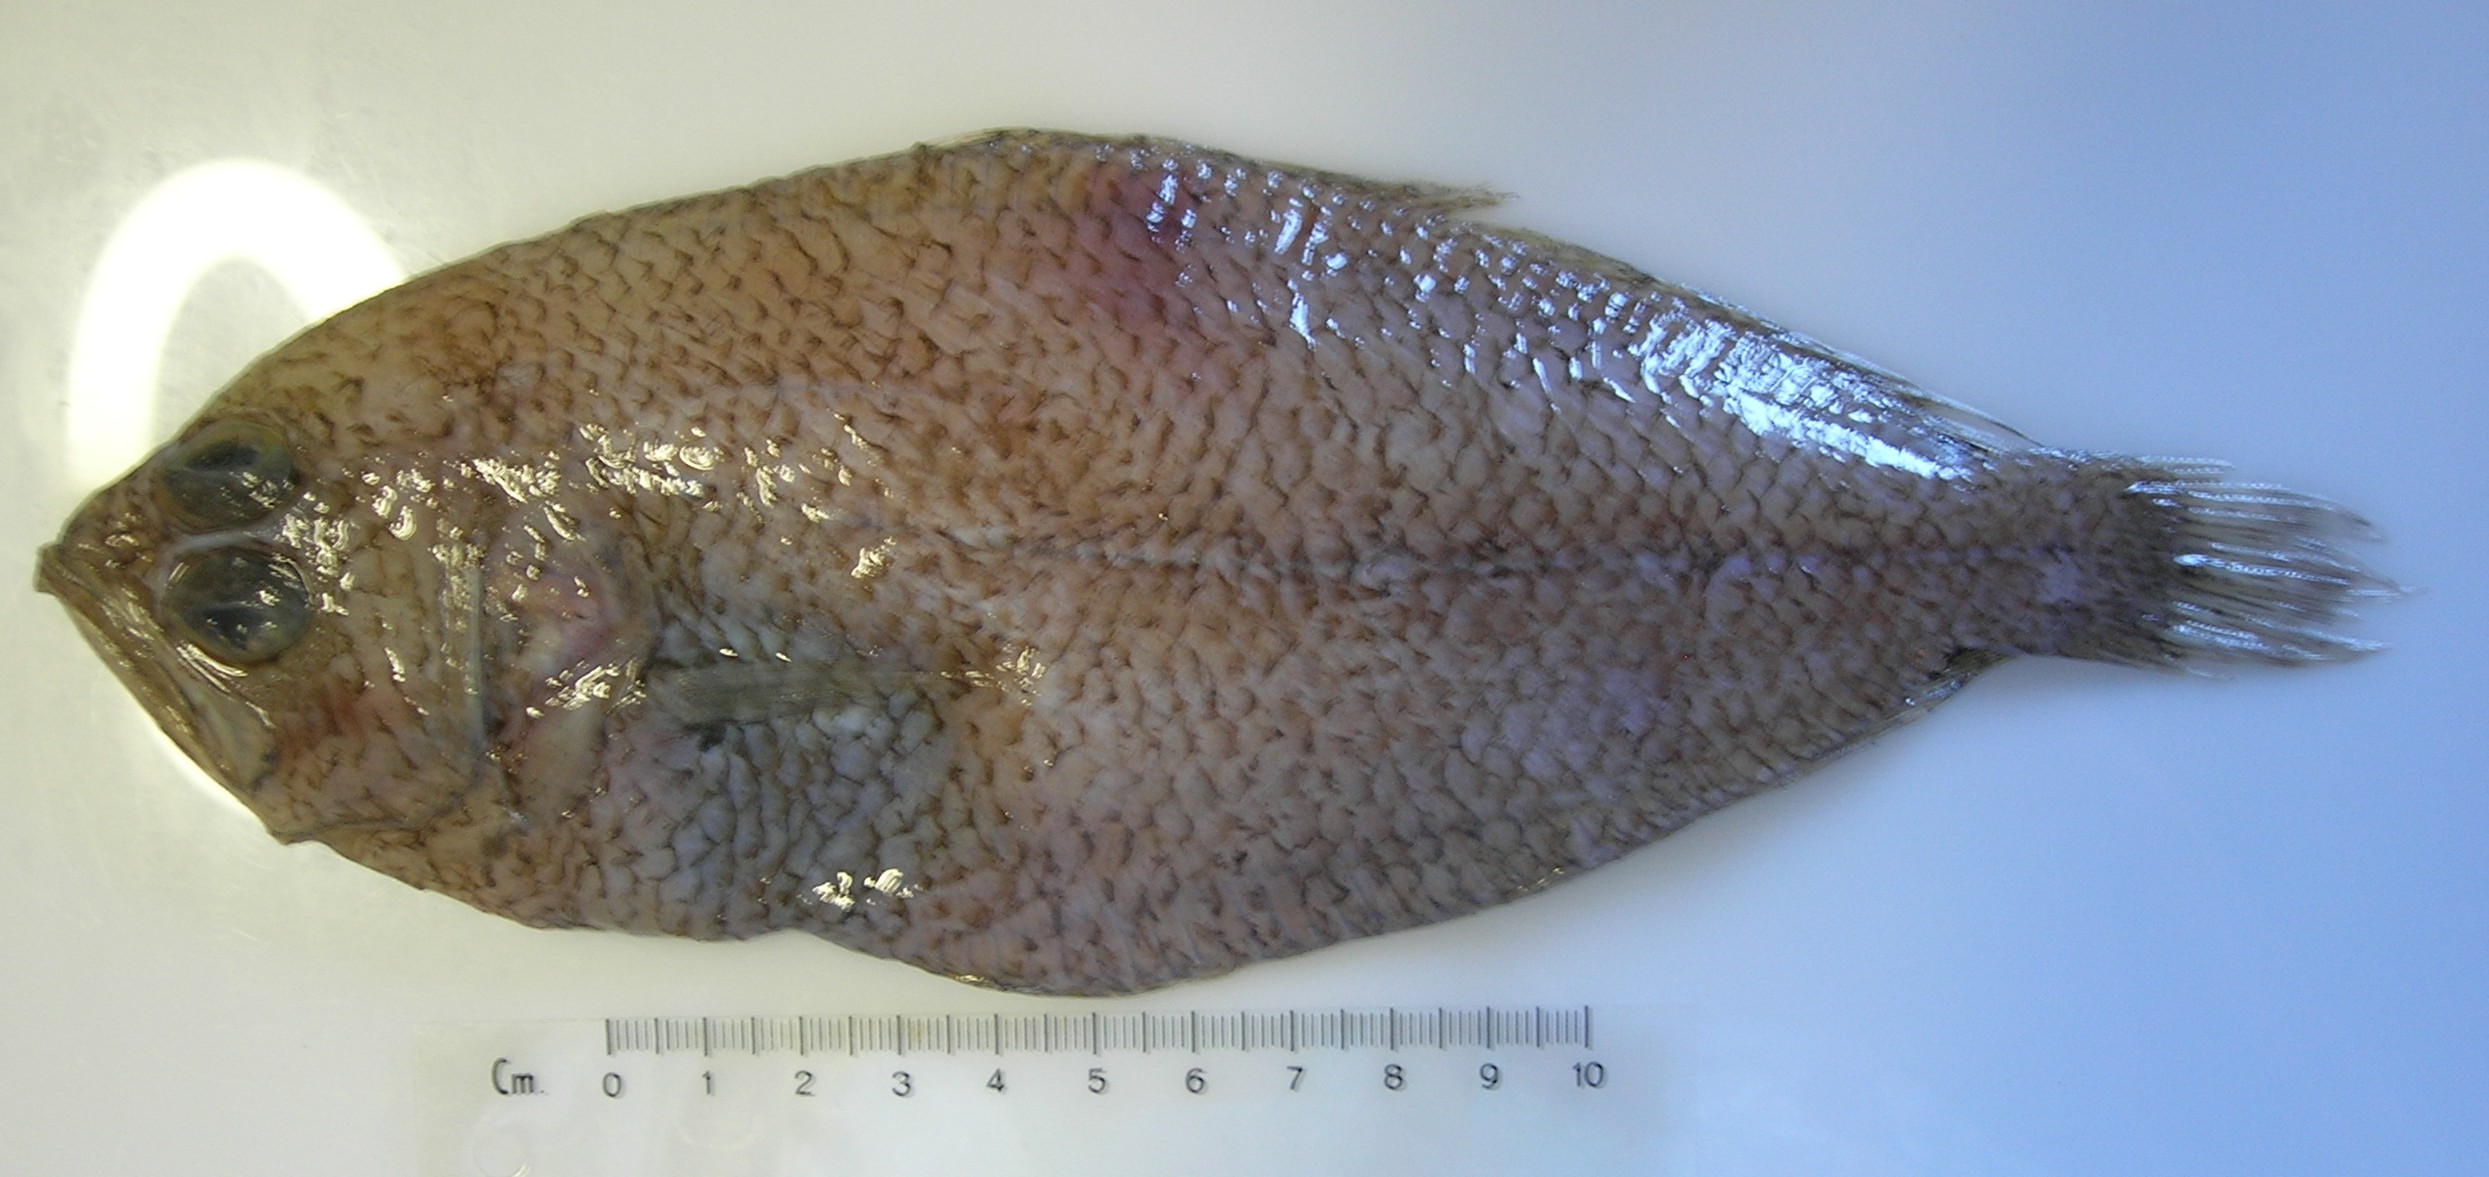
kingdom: Animalia
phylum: Chordata
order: Pleuronectiformes
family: Citharidae
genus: Citharoides
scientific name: Citharoides macrolepis
